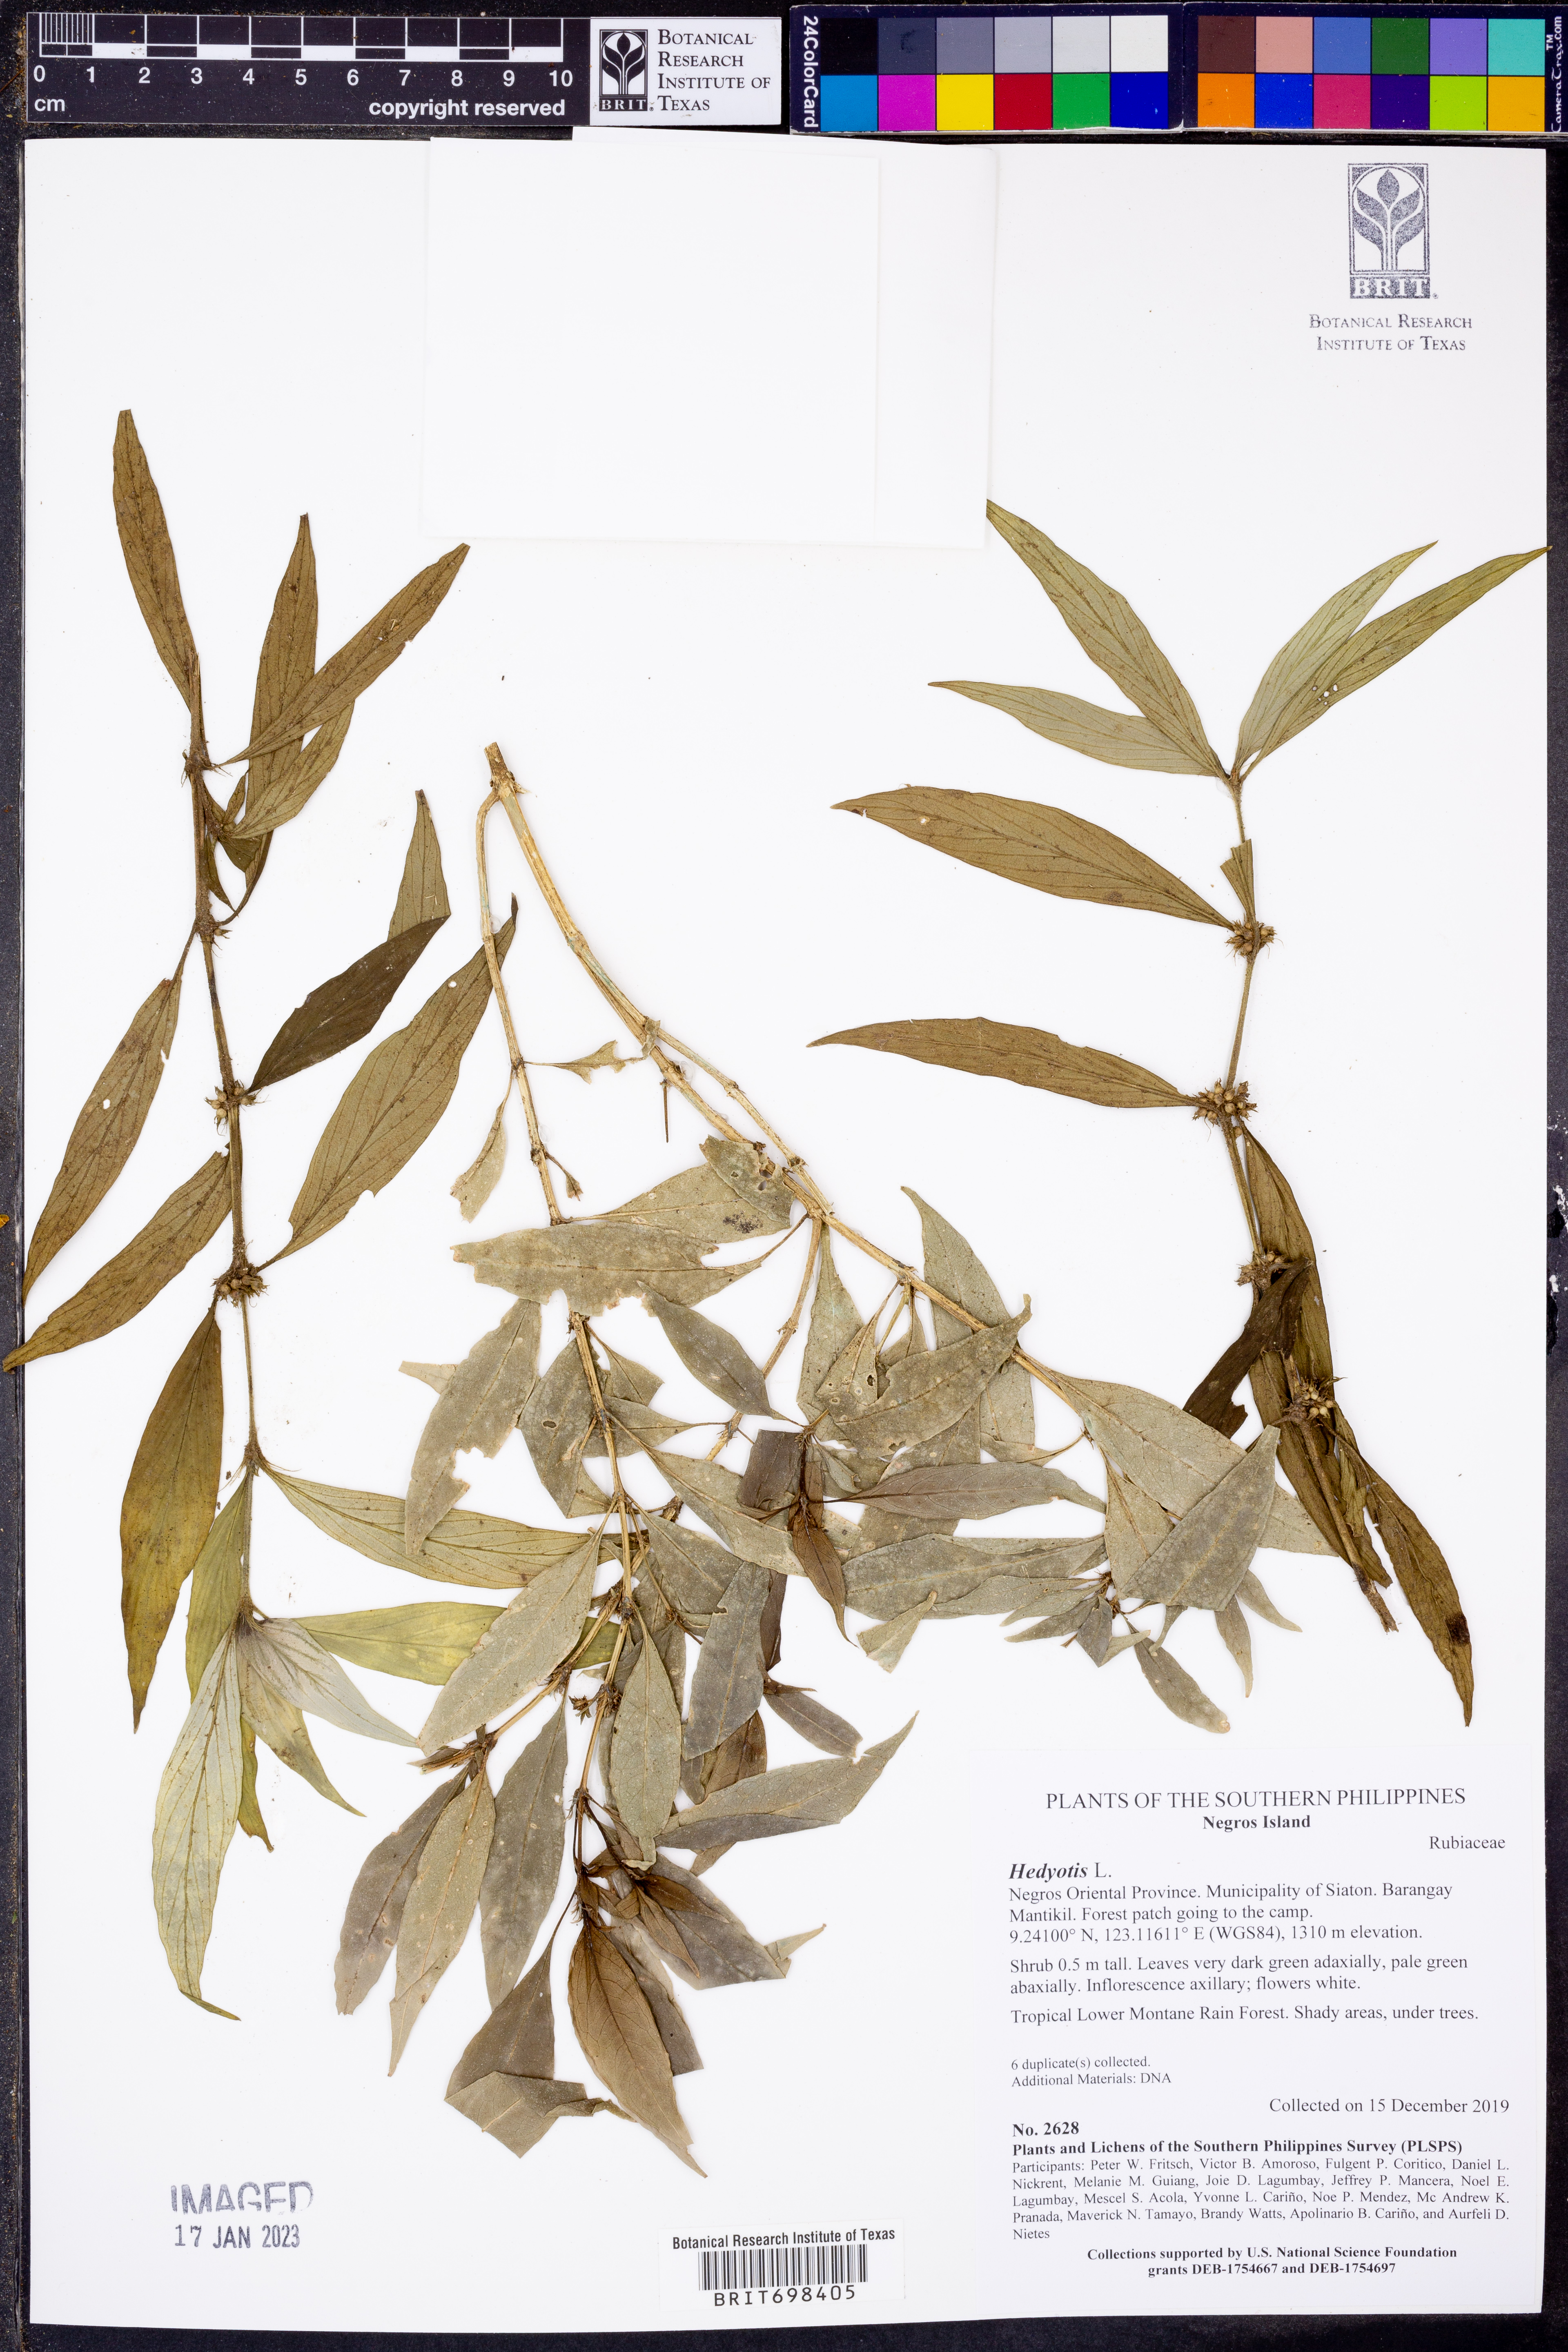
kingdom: Plantae
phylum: Tracheophyta
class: Magnoliopsida
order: Gentianales
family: Rubiaceae
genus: Hedyotis
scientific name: Hedyotis
